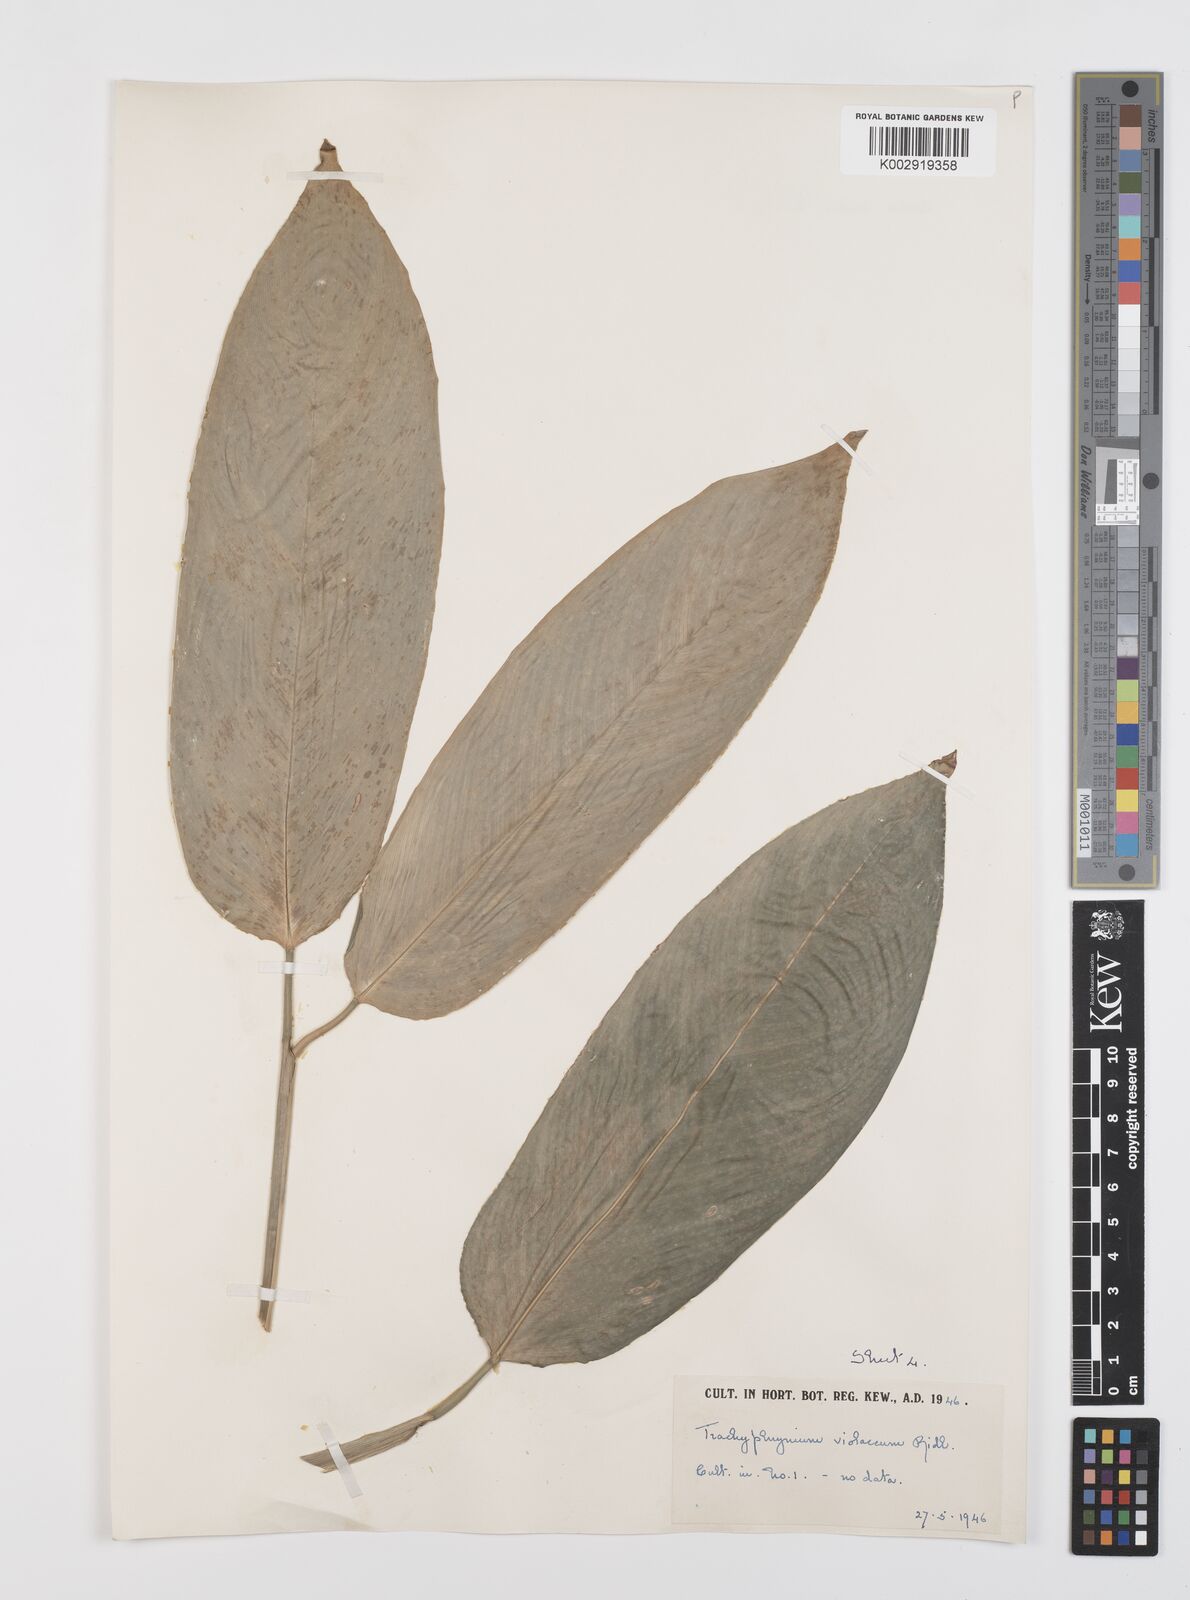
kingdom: Plantae
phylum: Tracheophyta
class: Liliopsida
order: Zingiberales
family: Marantaceae
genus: Hypselodelphys
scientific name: Hypselodelphys poggeana
